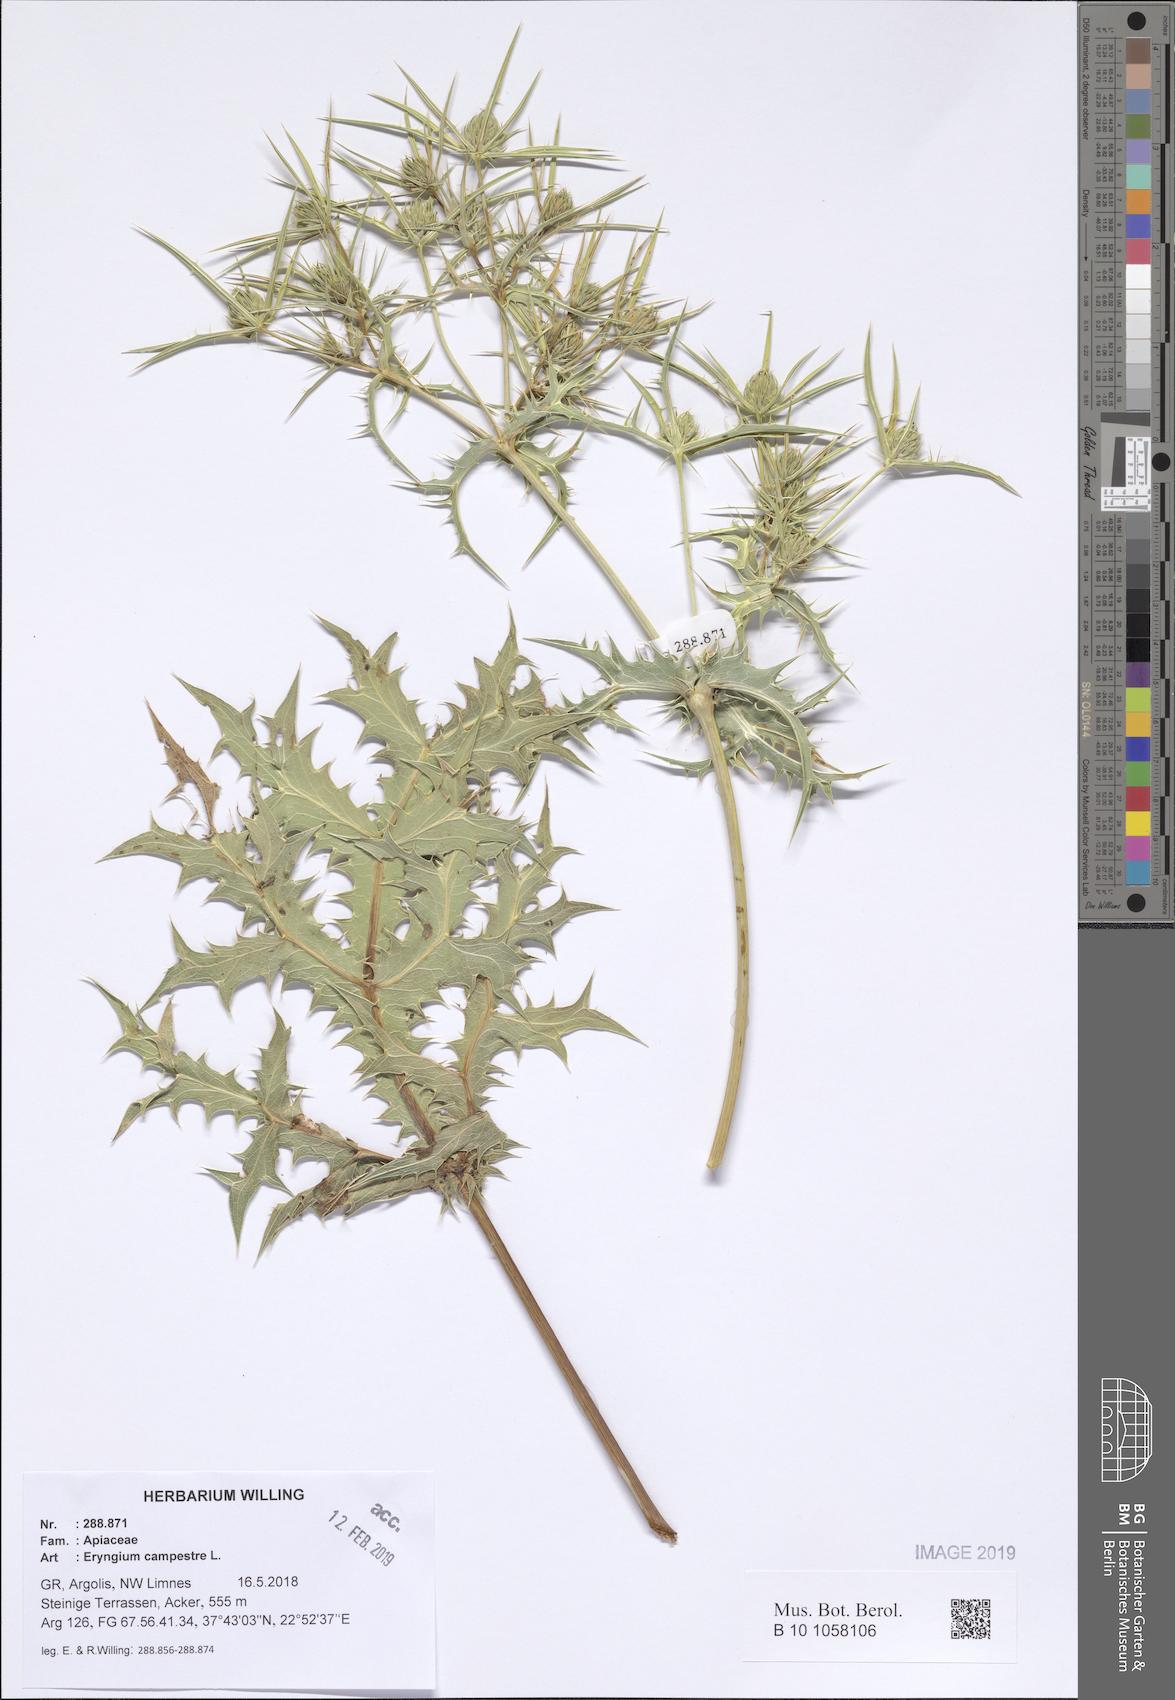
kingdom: Plantae
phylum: Tracheophyta
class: Magnoliopsida
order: Apiales
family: Apiaceae
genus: Eryngium
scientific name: Eryngium campestre
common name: Field eryngo
